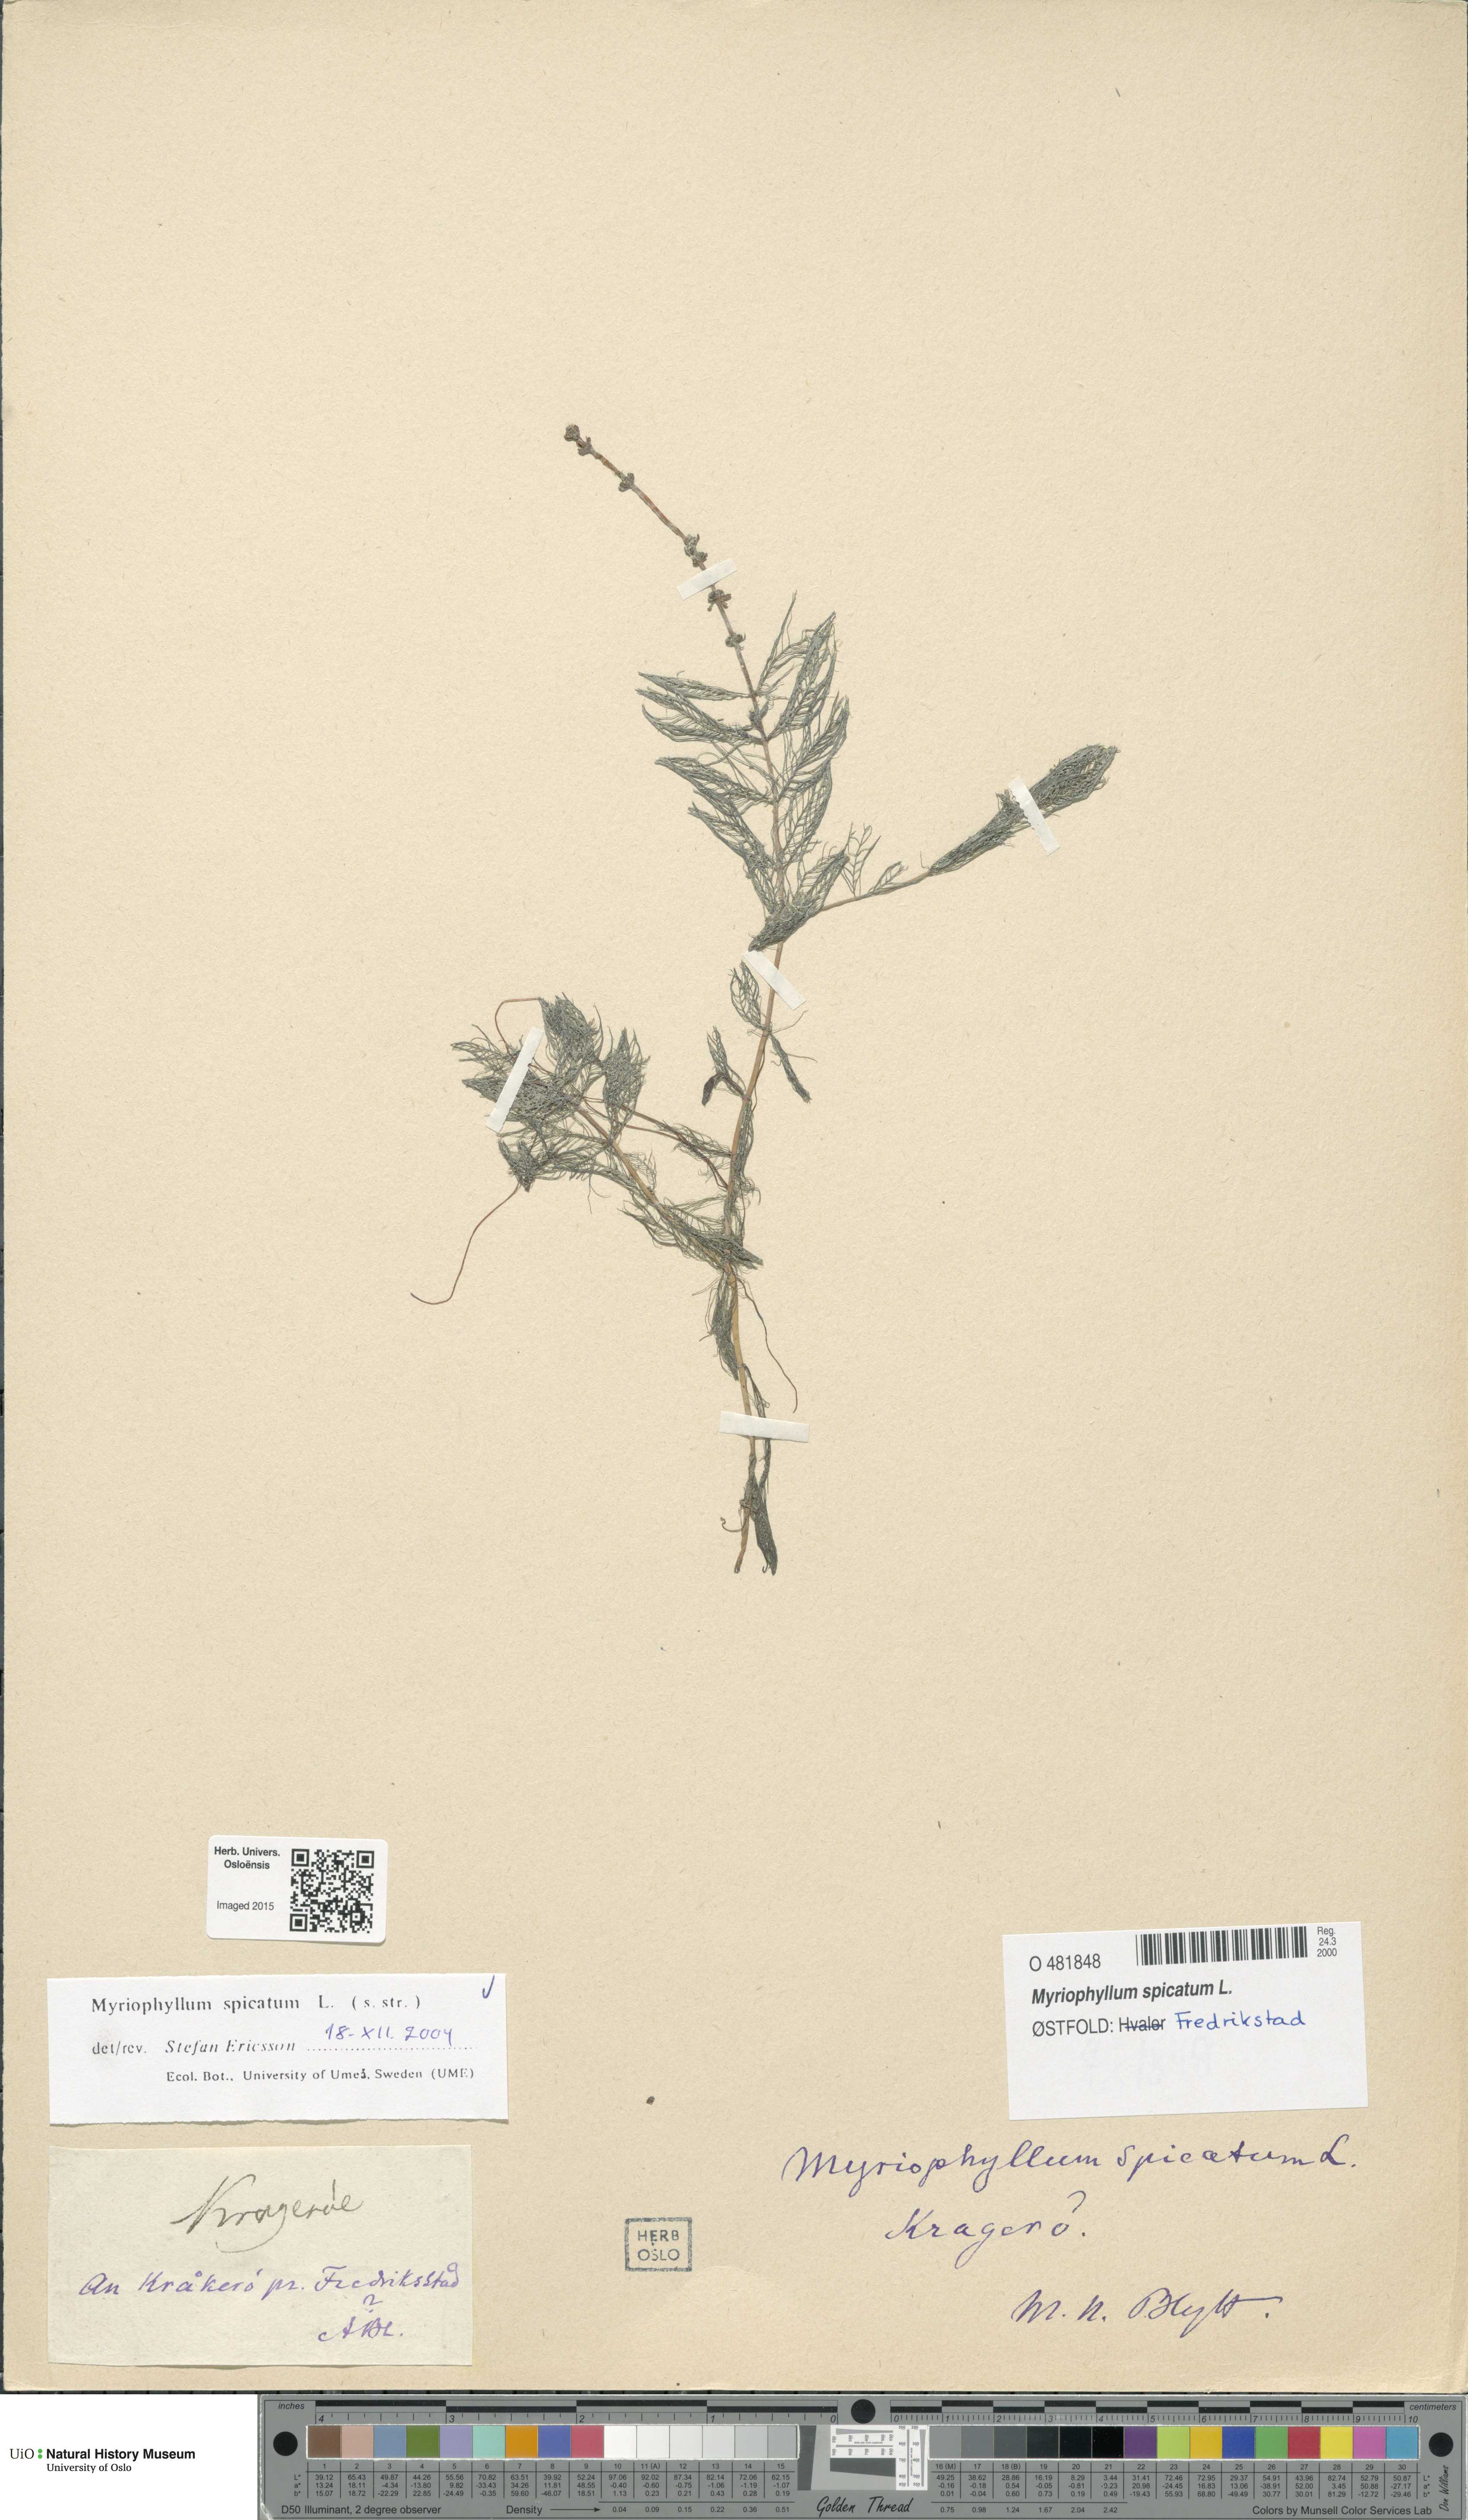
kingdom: Plantae
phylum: Tracheophyta
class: Magnoliopsida
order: Saxifragales
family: Haloragaceae
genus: Myriophyllum
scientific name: Myriophyllum spicatum
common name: Spiked water-milfoil
